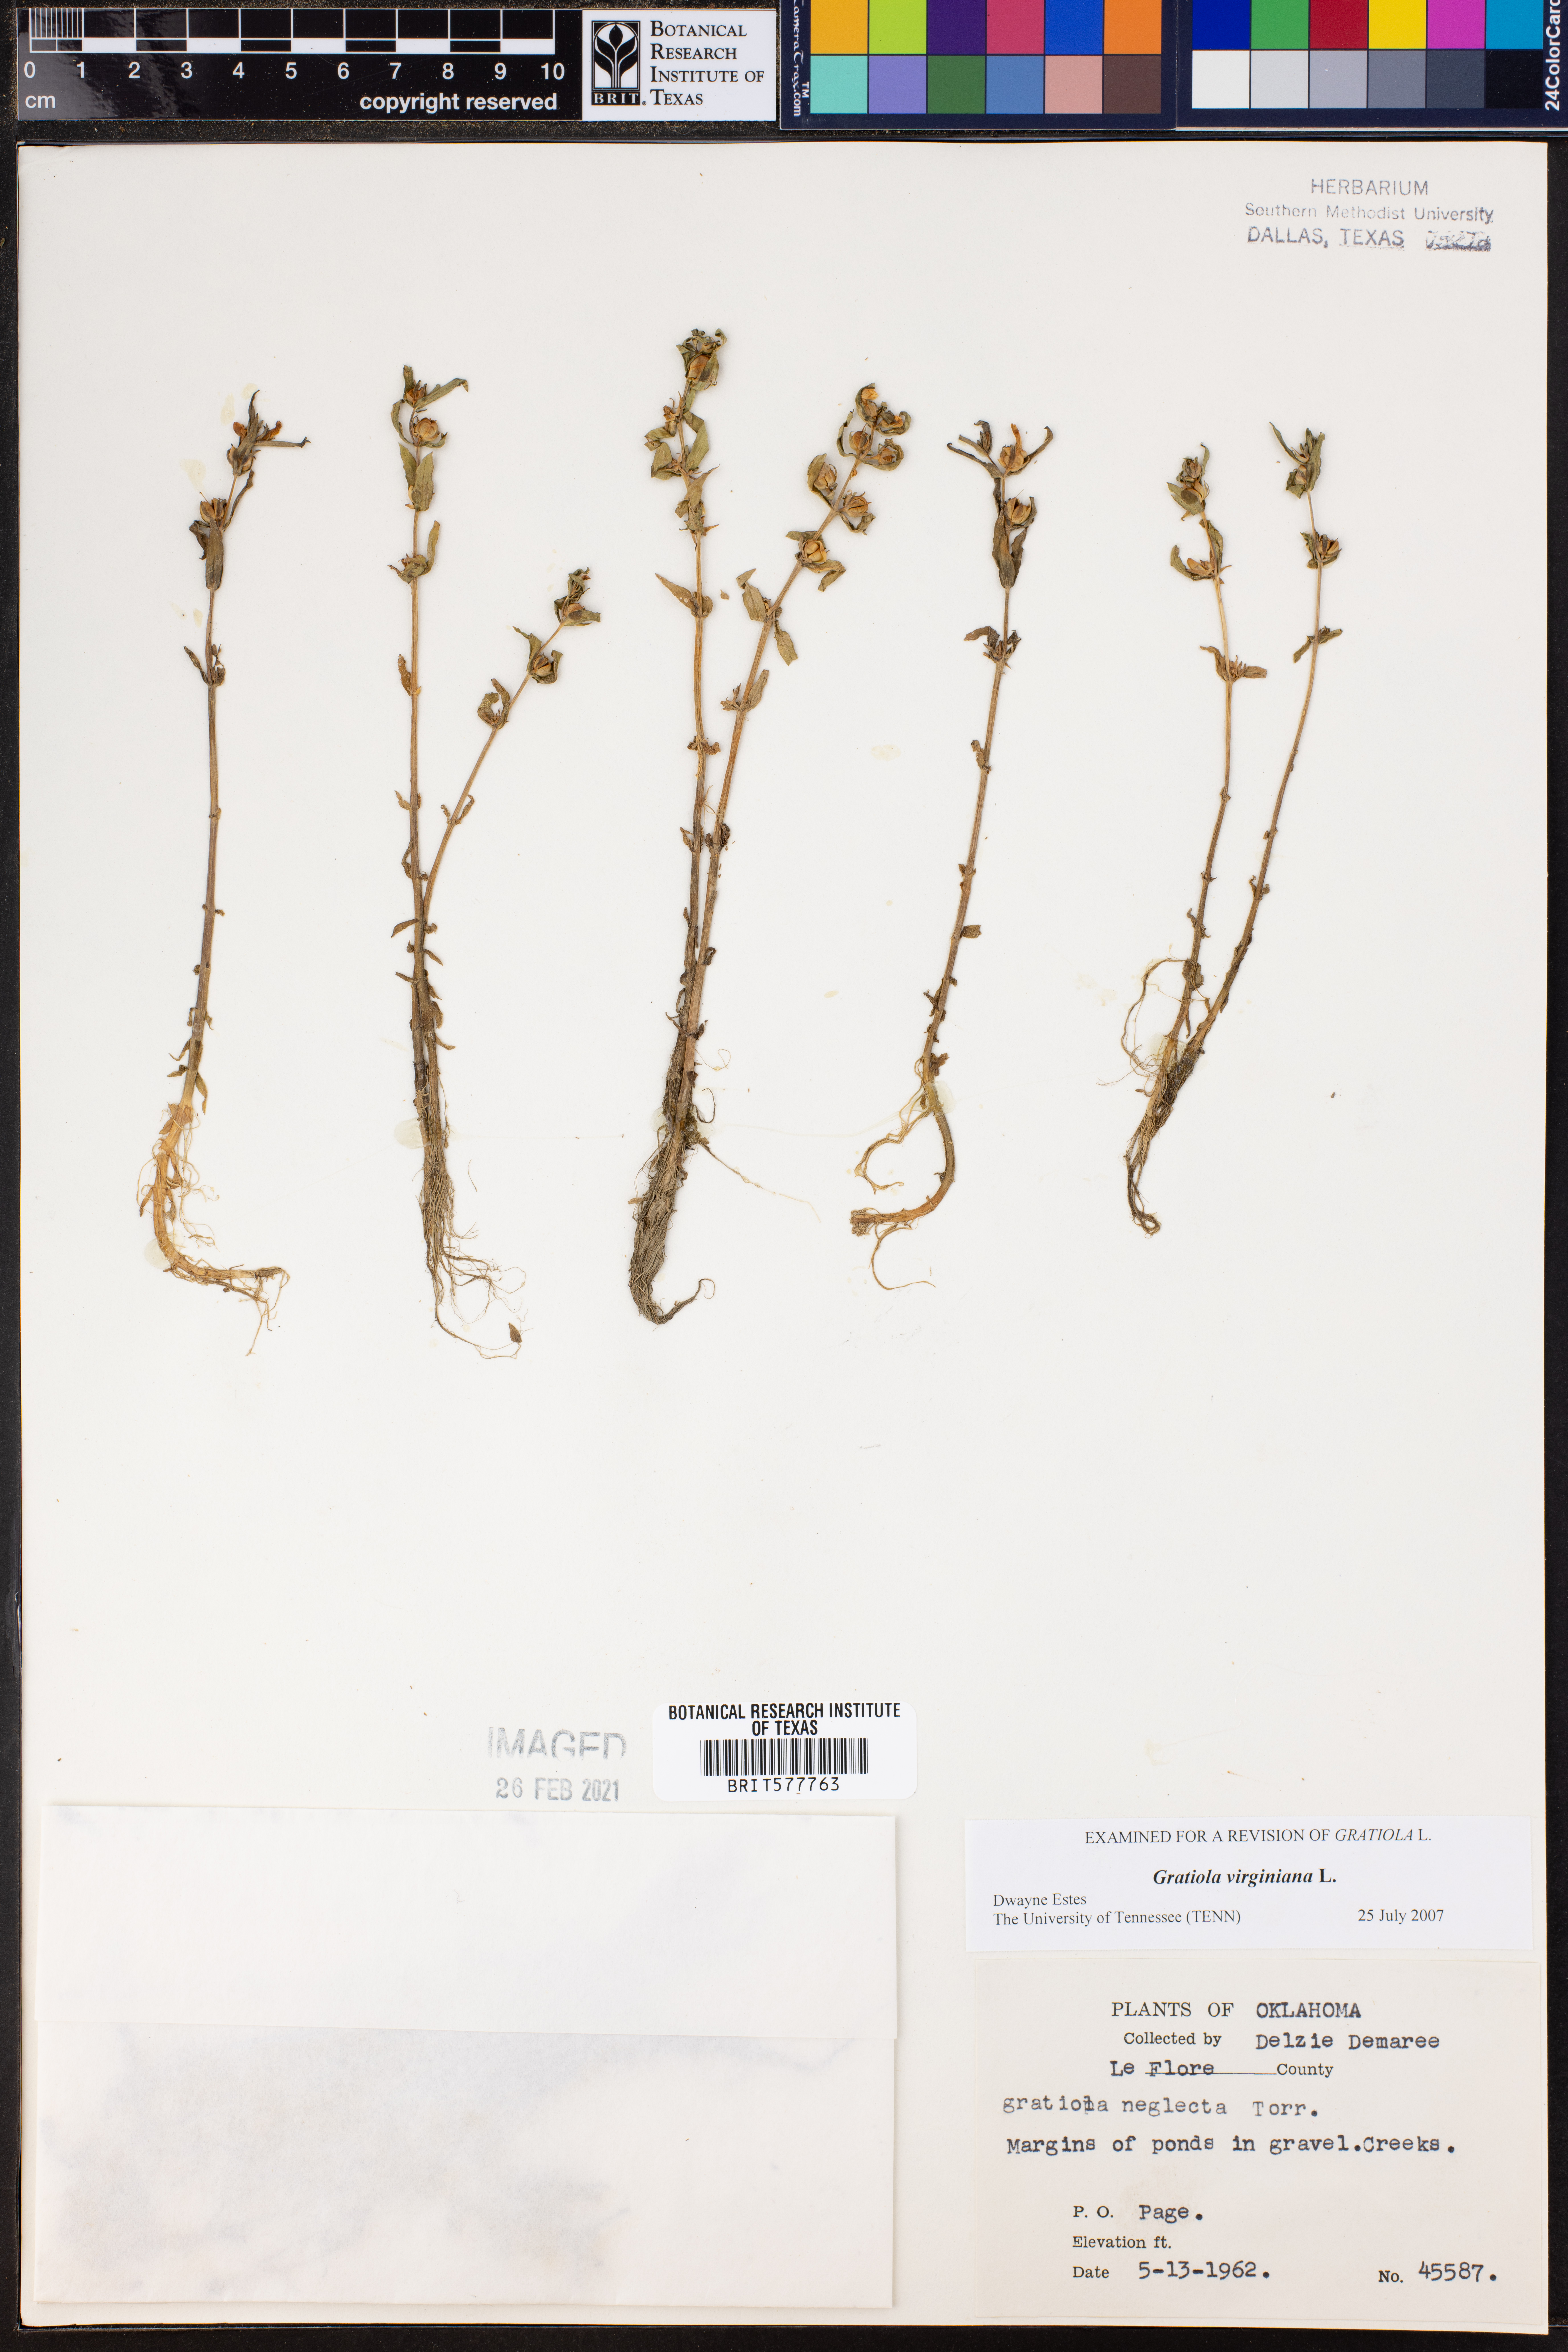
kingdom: Plantae
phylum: Tracheophyta
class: Magnoliopsida
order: Lamiales
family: Plantaginaceae
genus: Gratiola
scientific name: Gratiola virginiana
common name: Roundfruit hedgehyssop
